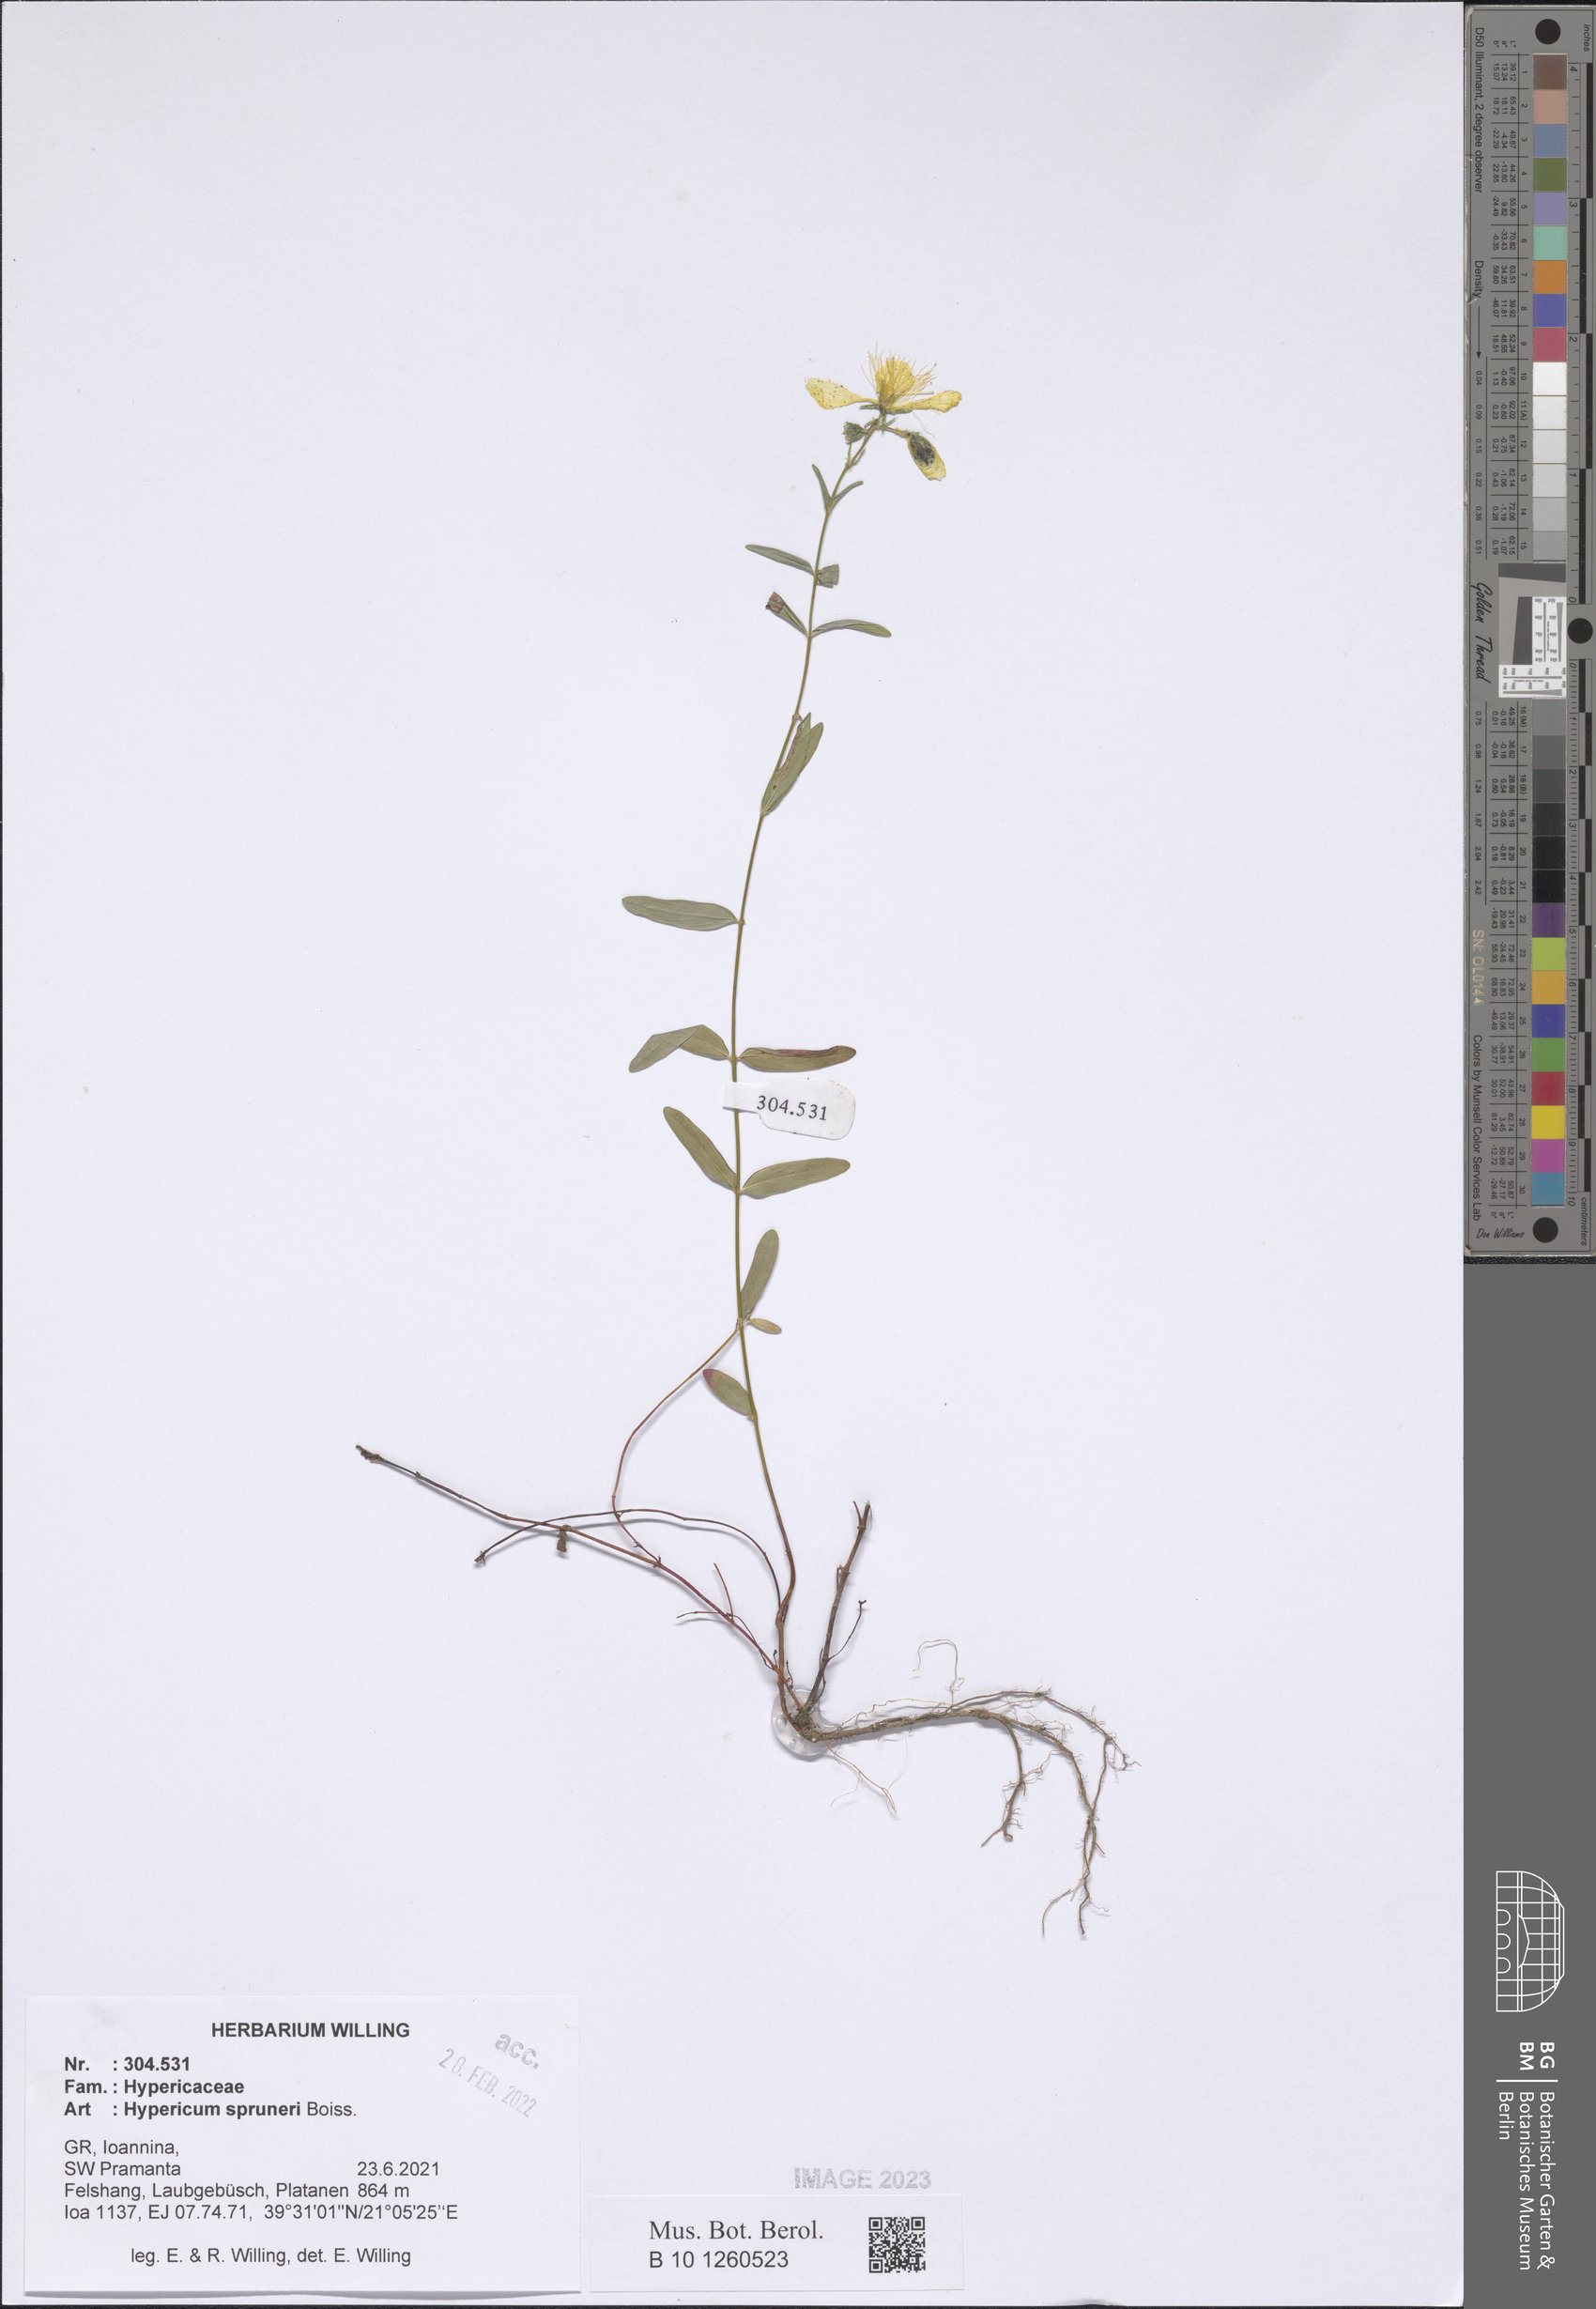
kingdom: Plantae
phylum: Tracheophyta
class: Magnoliopsida
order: Malpighiales
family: Hypericaceae
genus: Hypericum
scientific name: Hypericum spruneri
